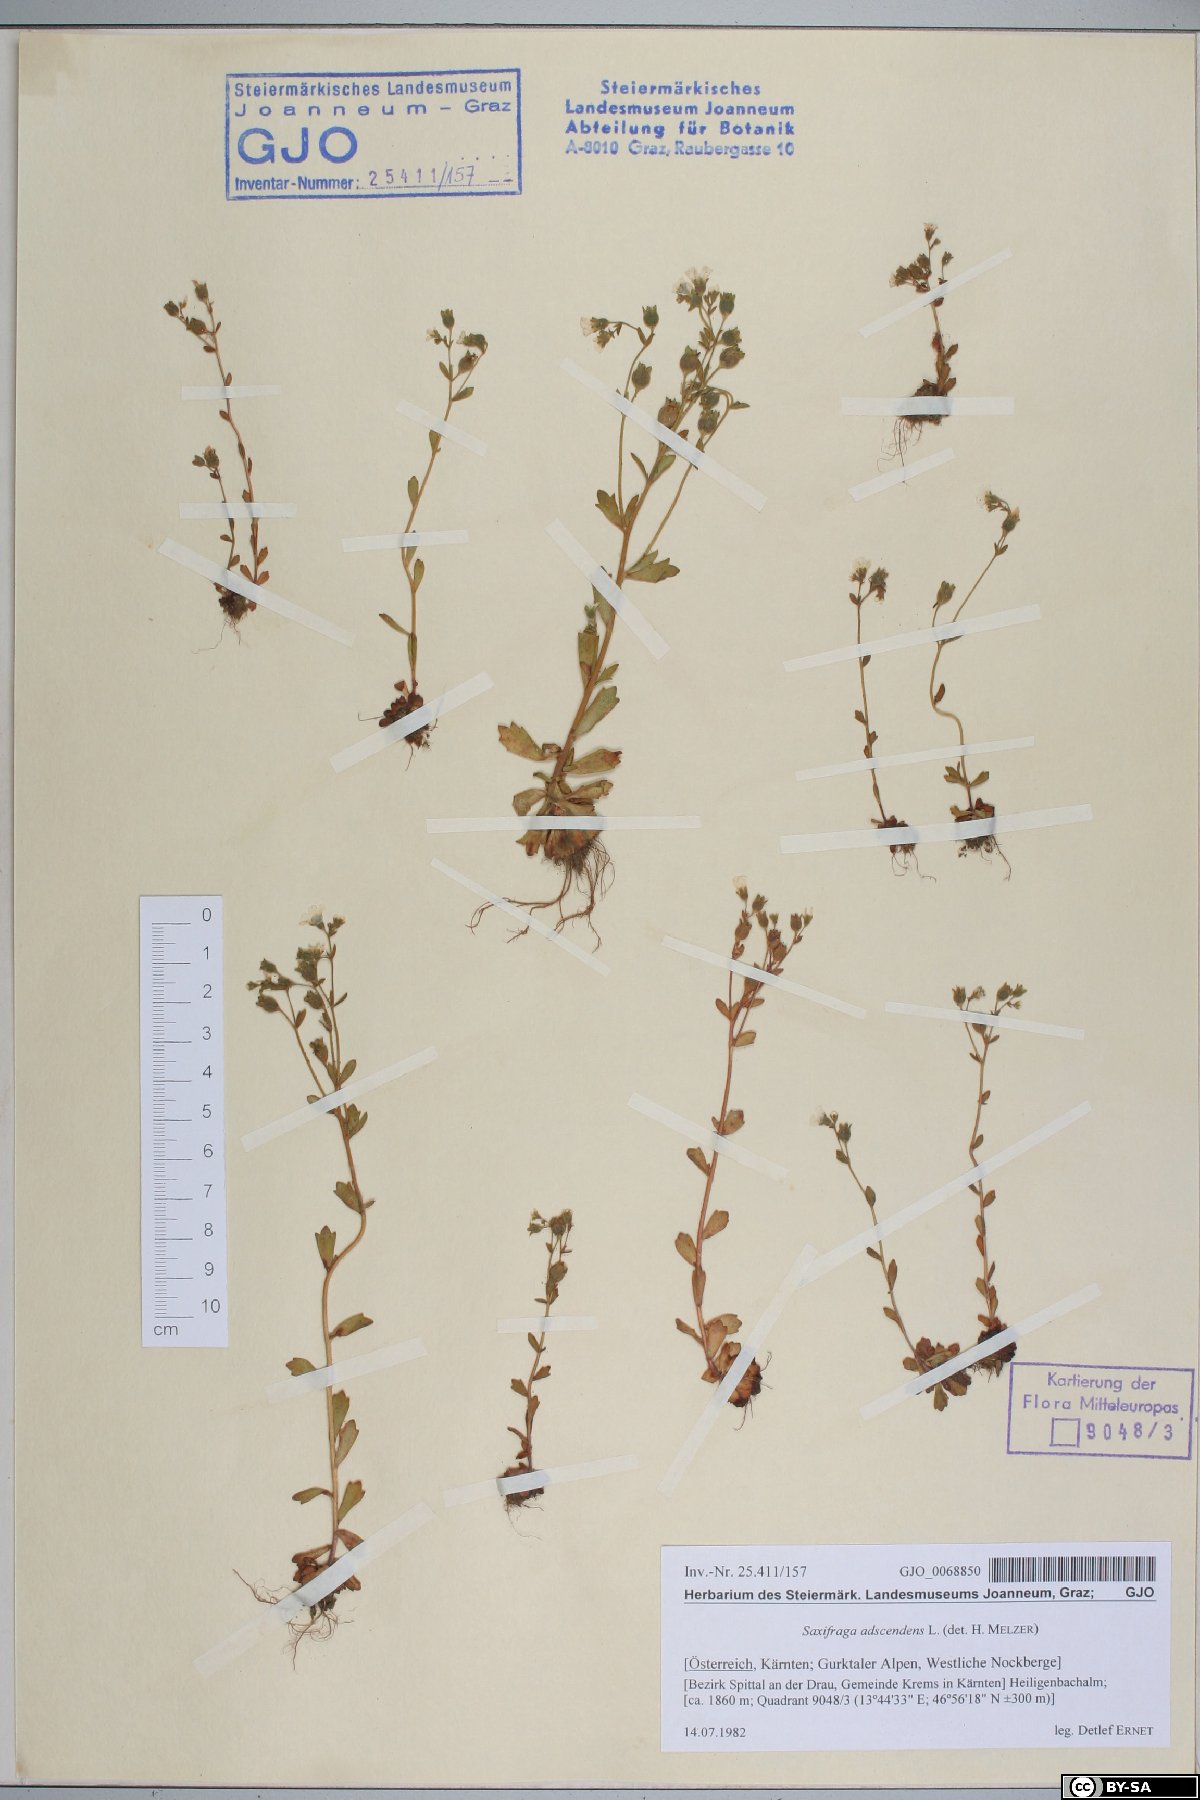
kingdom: Plantae
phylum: Tracheophyta
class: Magnoliopsida
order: Saxifragales
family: Saxifragaceae
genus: Saxifraga
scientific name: Saxifraga adscendens
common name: Ascending saxifrage
